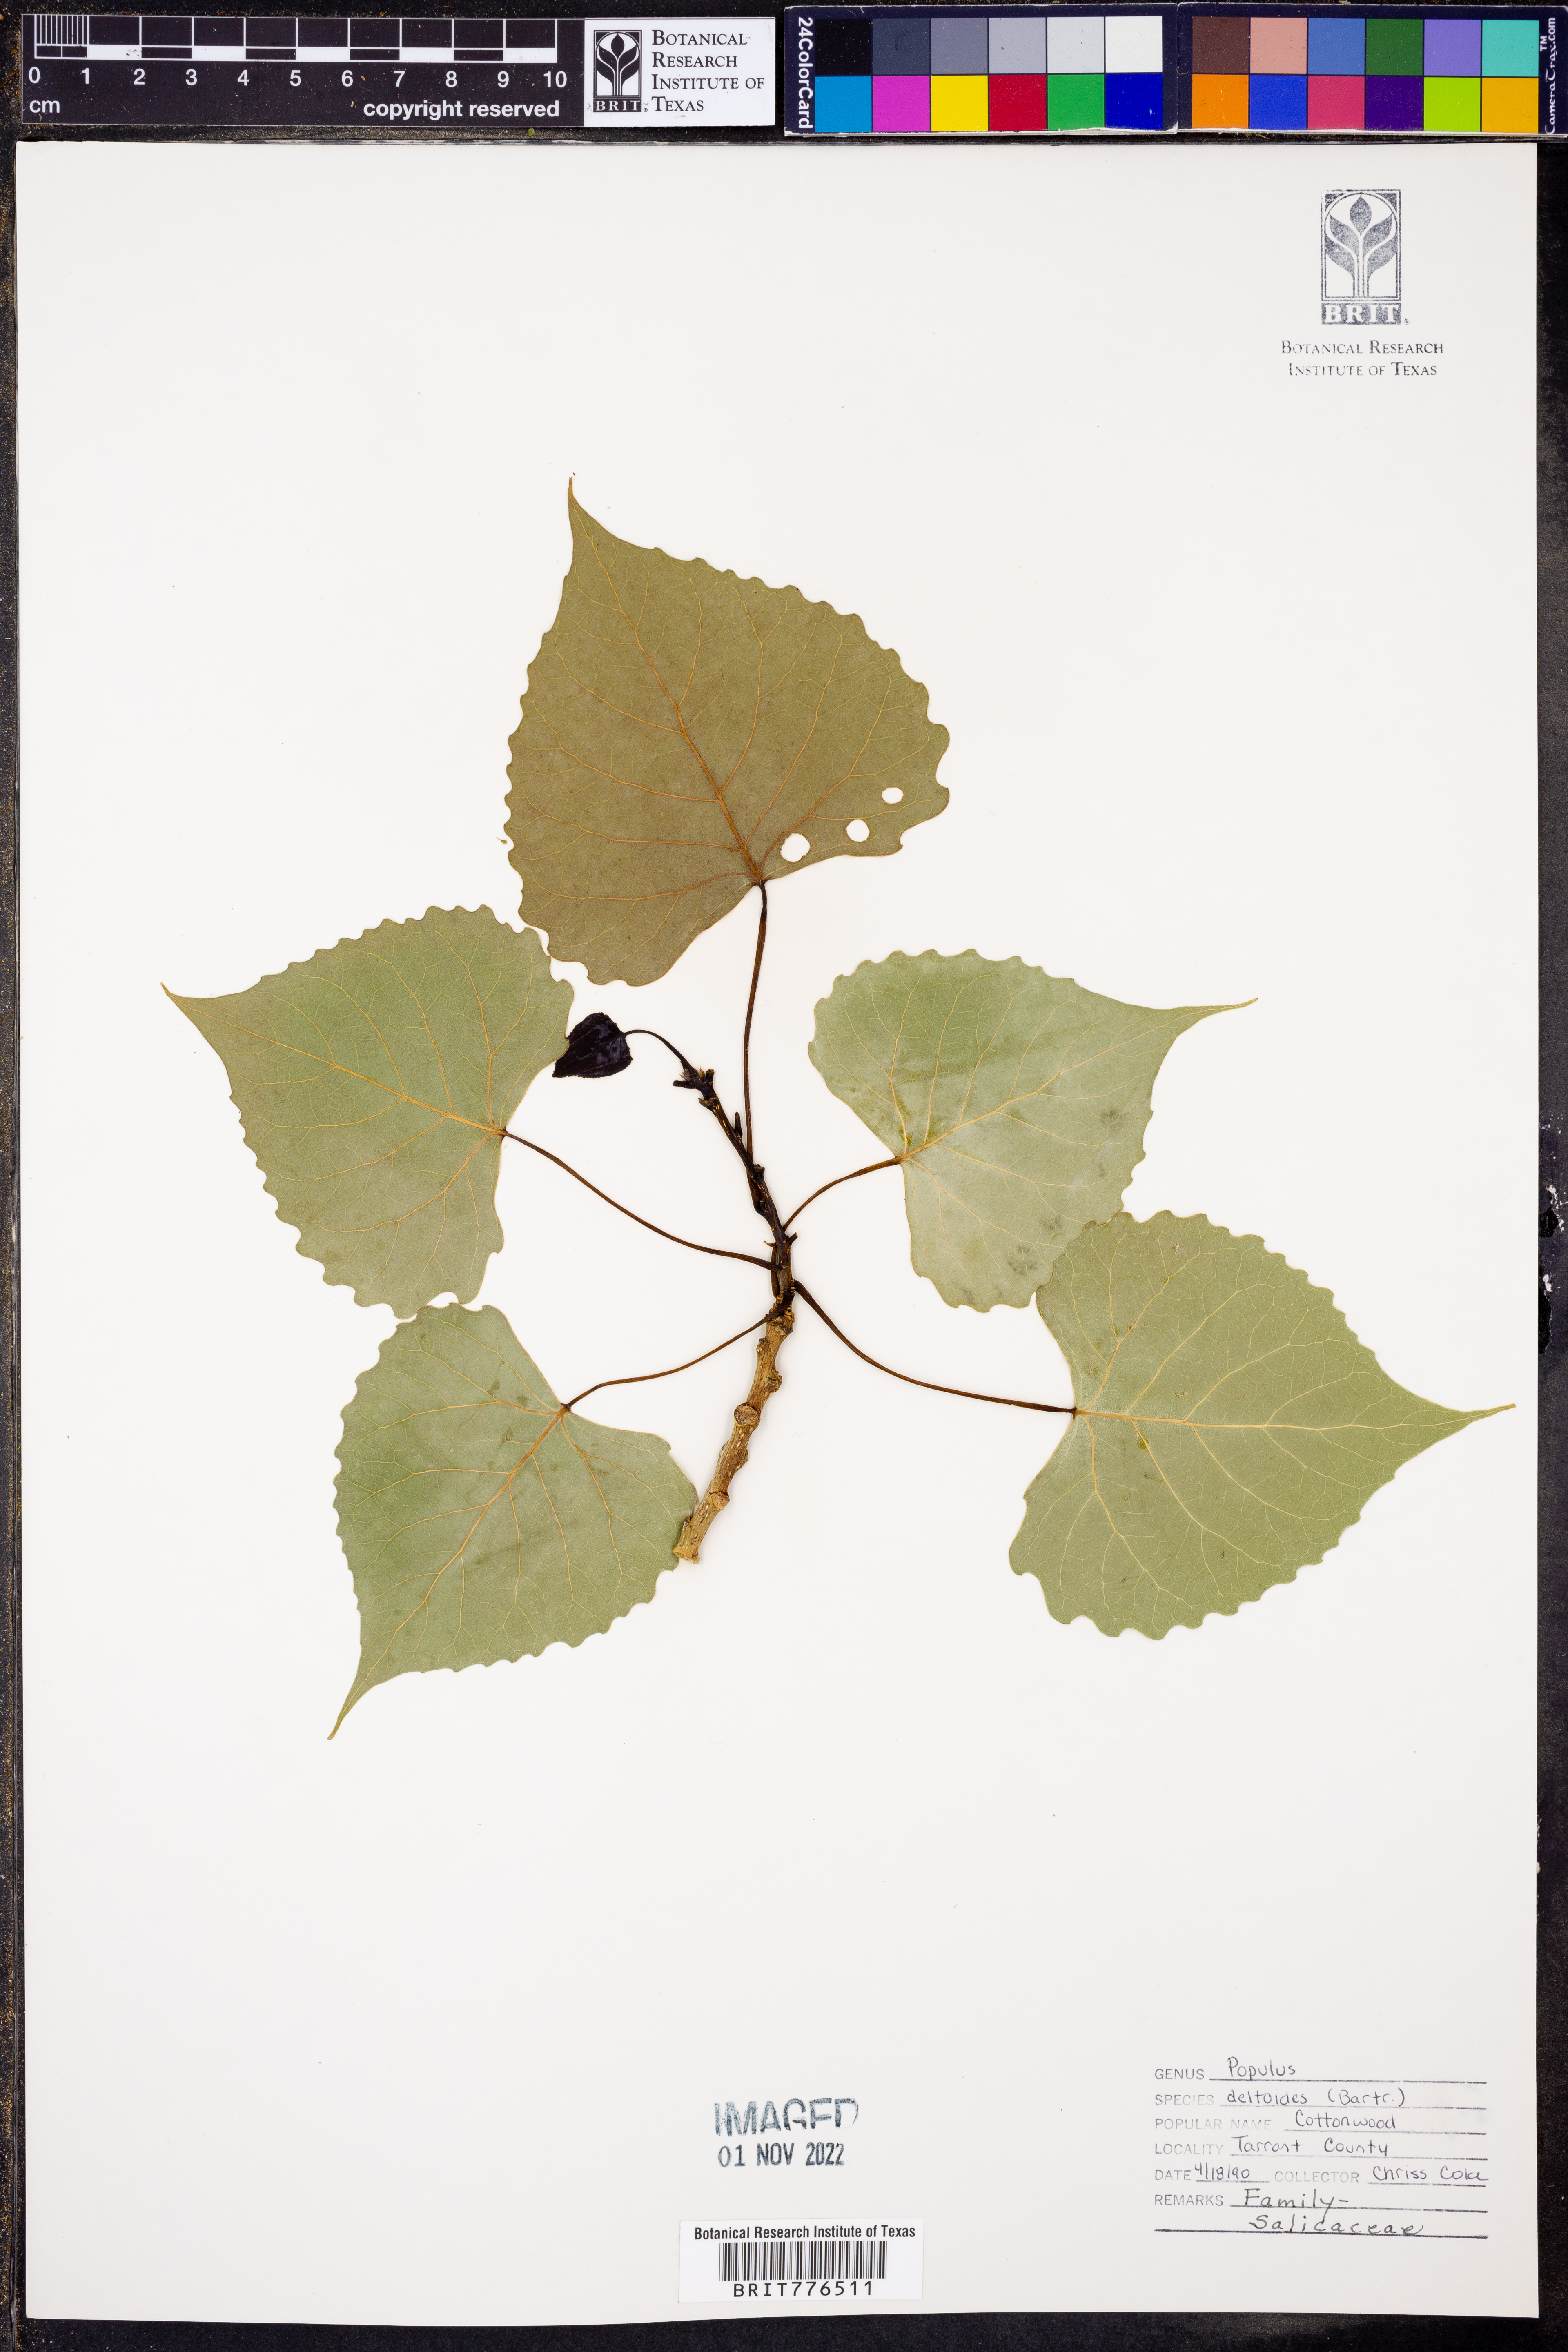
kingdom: Plantae
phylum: Tracheophyta
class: Magnoliopsida
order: Malpighiales
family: Salicaceae
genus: Populus
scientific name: Populus deltoides
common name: Eastern cottonwood
